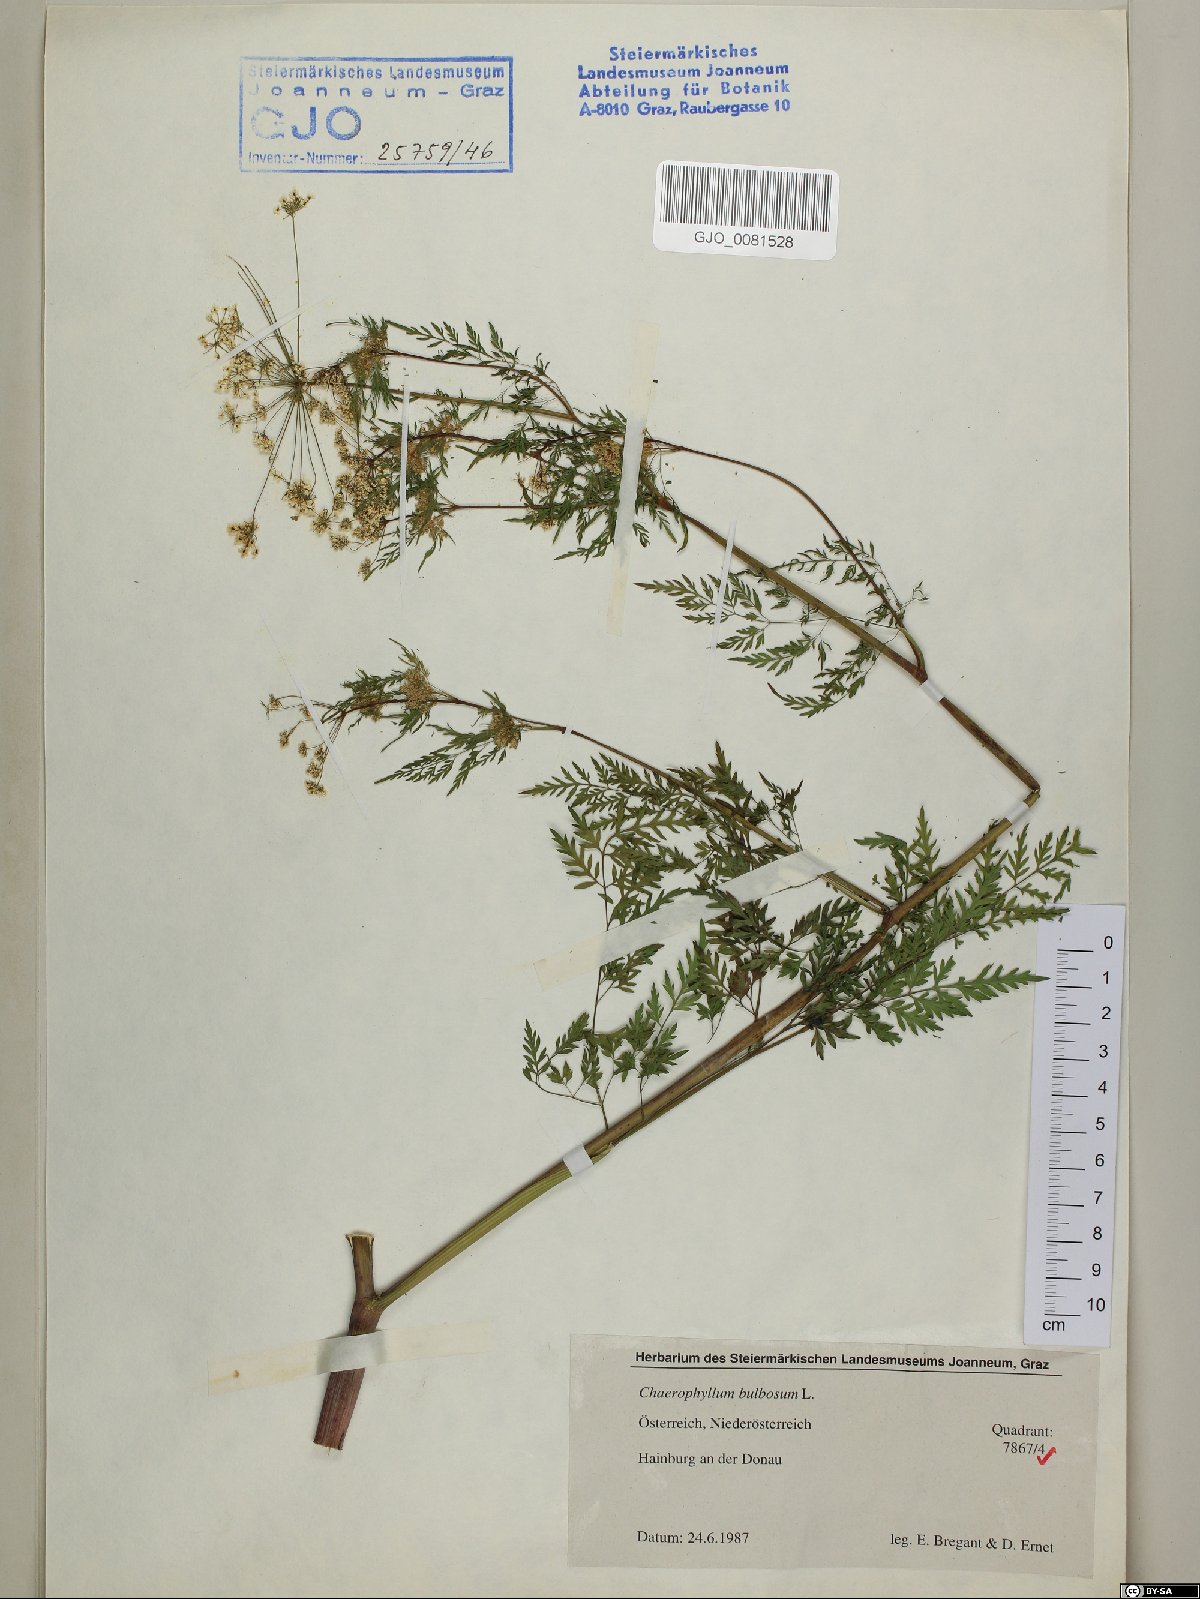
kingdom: Plantae
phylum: Tracheophyta
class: Magnoliopsida
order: Apiales
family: Apiaceae
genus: Chaerophyllum
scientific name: Chaerophyllum bulbosum
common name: Bulbous chervil
